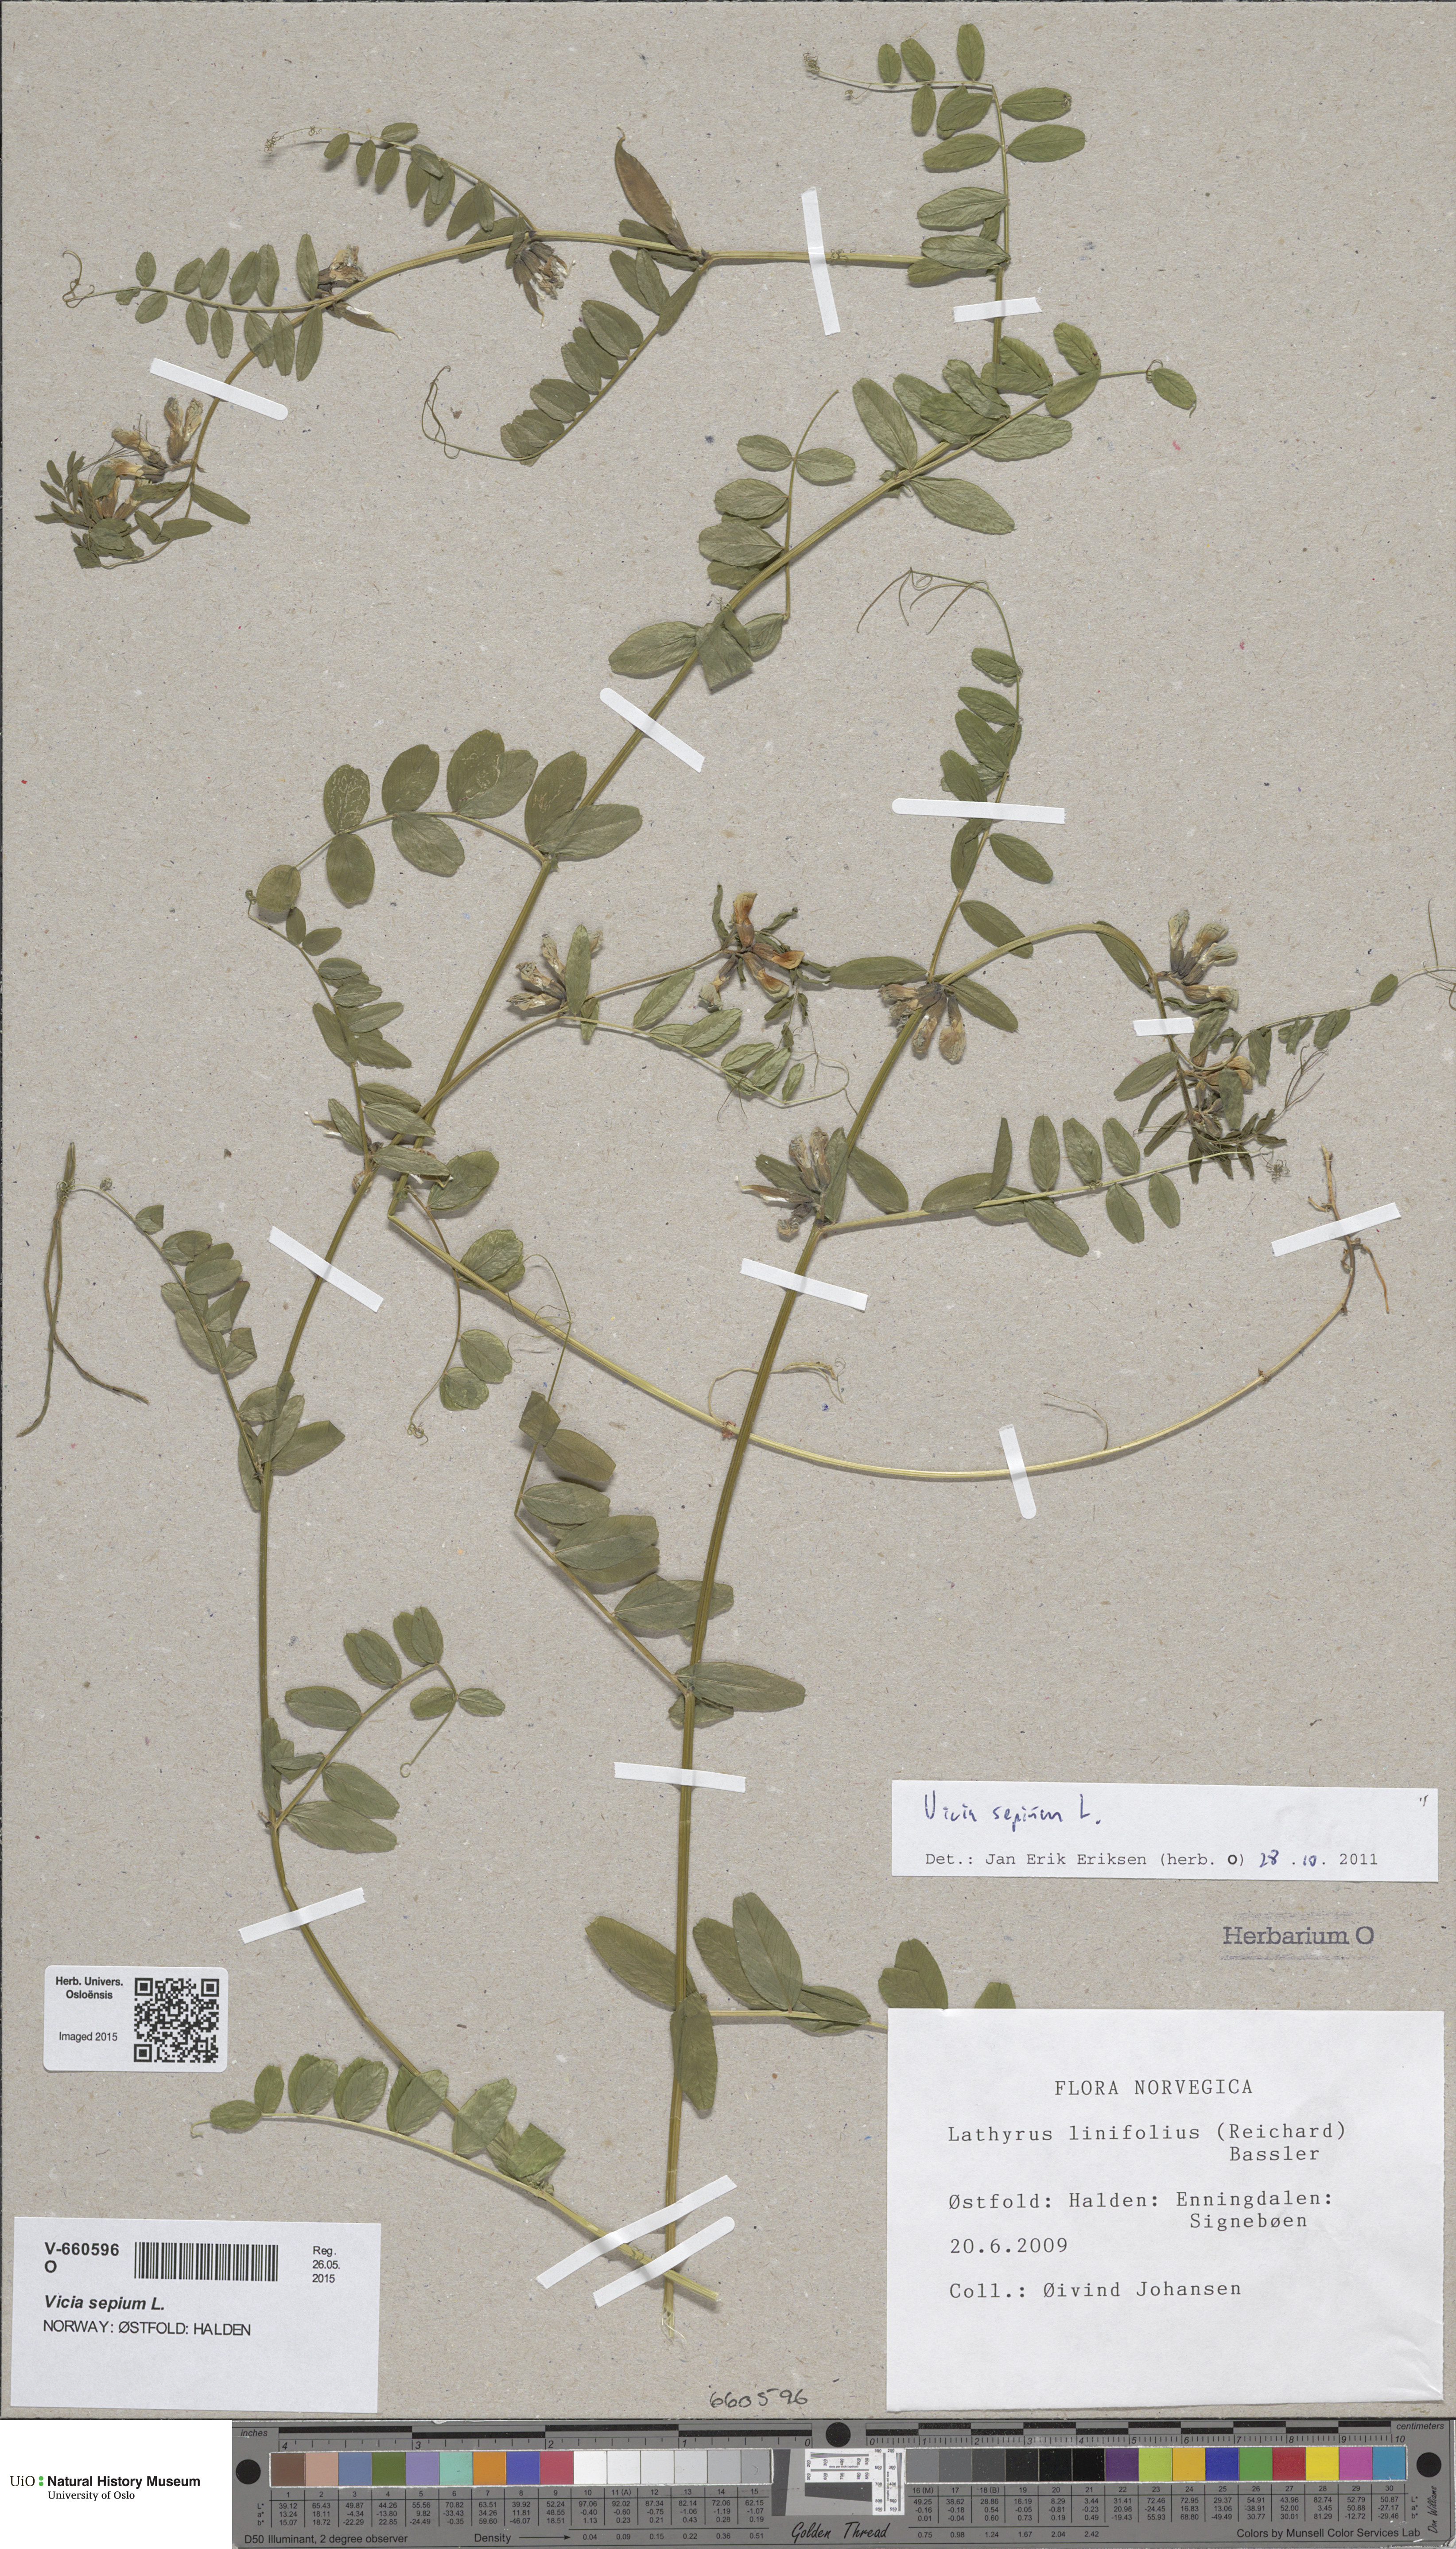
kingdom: Plantae
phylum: Tracheophyta
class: Magnoliopsida
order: Fabales
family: Fabaceae
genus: Vicia
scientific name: Vicia sepium
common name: Bush vetch
